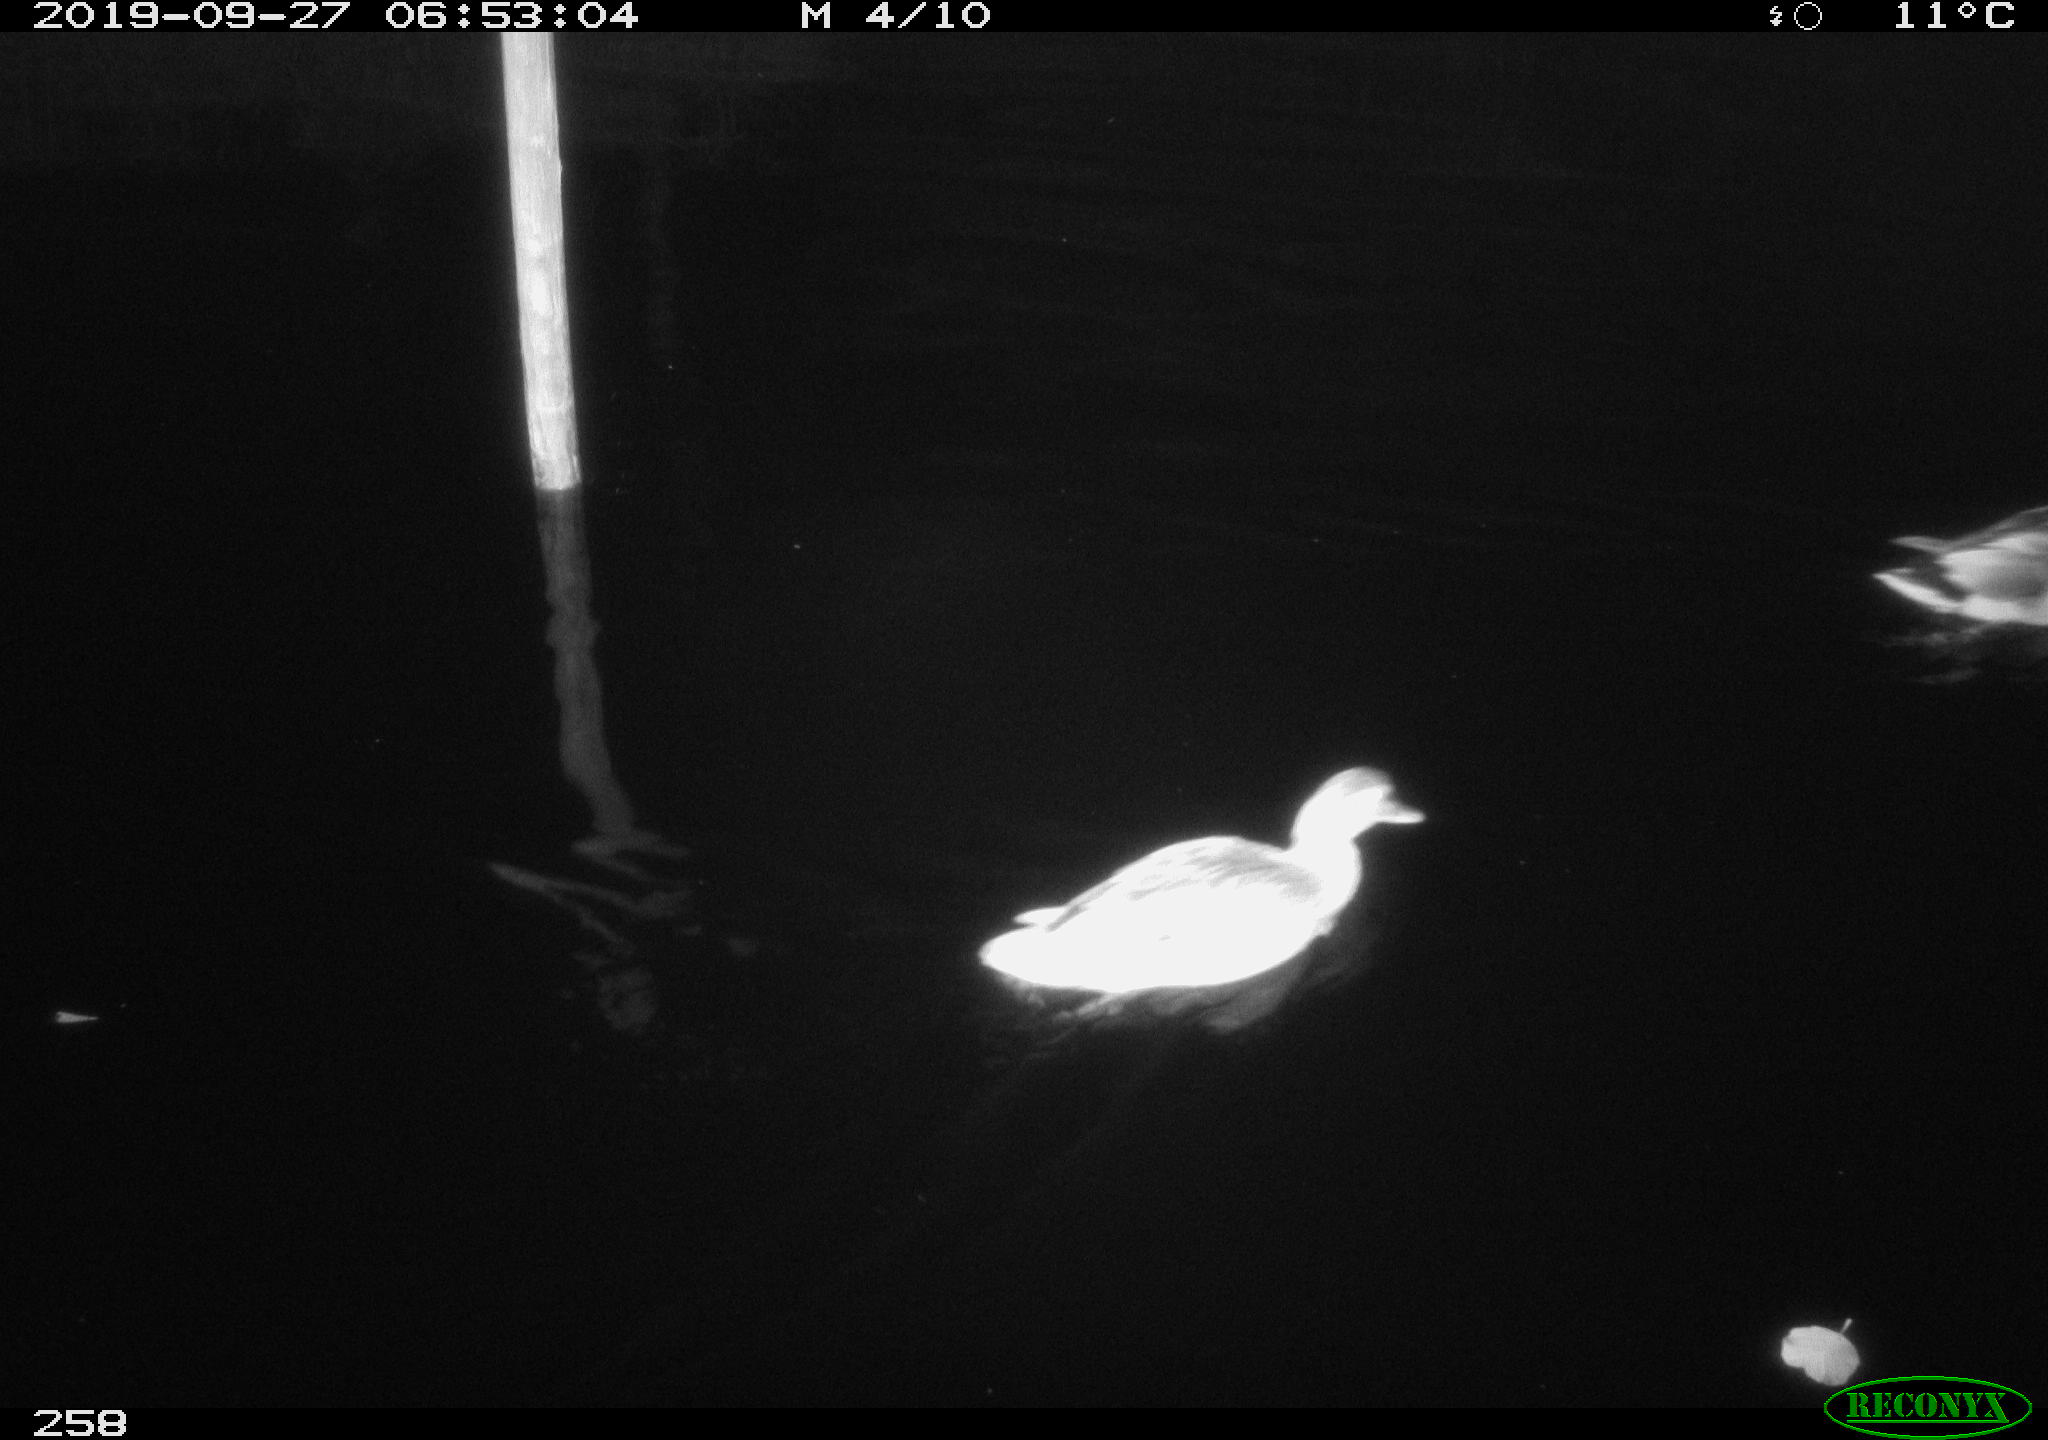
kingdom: Animalia
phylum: Chordata
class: Aves
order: Anseriformes
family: Anatidae
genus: Anas
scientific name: Anas platyrhynchos
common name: Mallard
